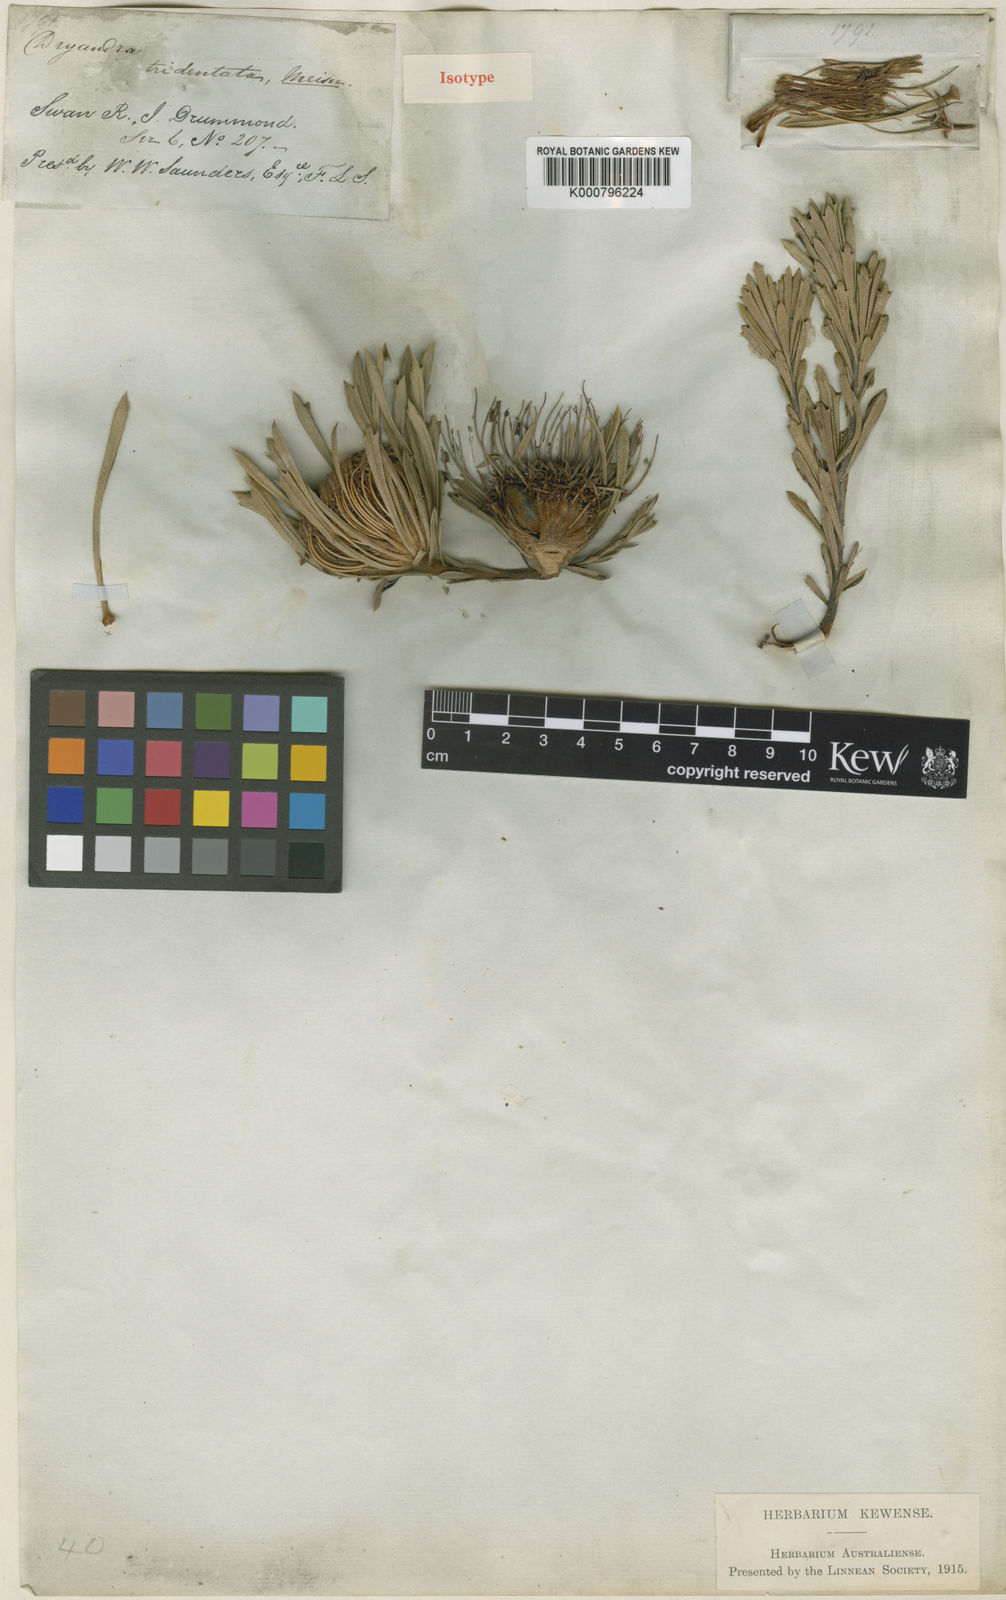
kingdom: Plantae
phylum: Tracheophyta
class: Magnoliopsida
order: Proteales
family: Proteaceae
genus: Banksia
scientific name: Banksia tridentata
